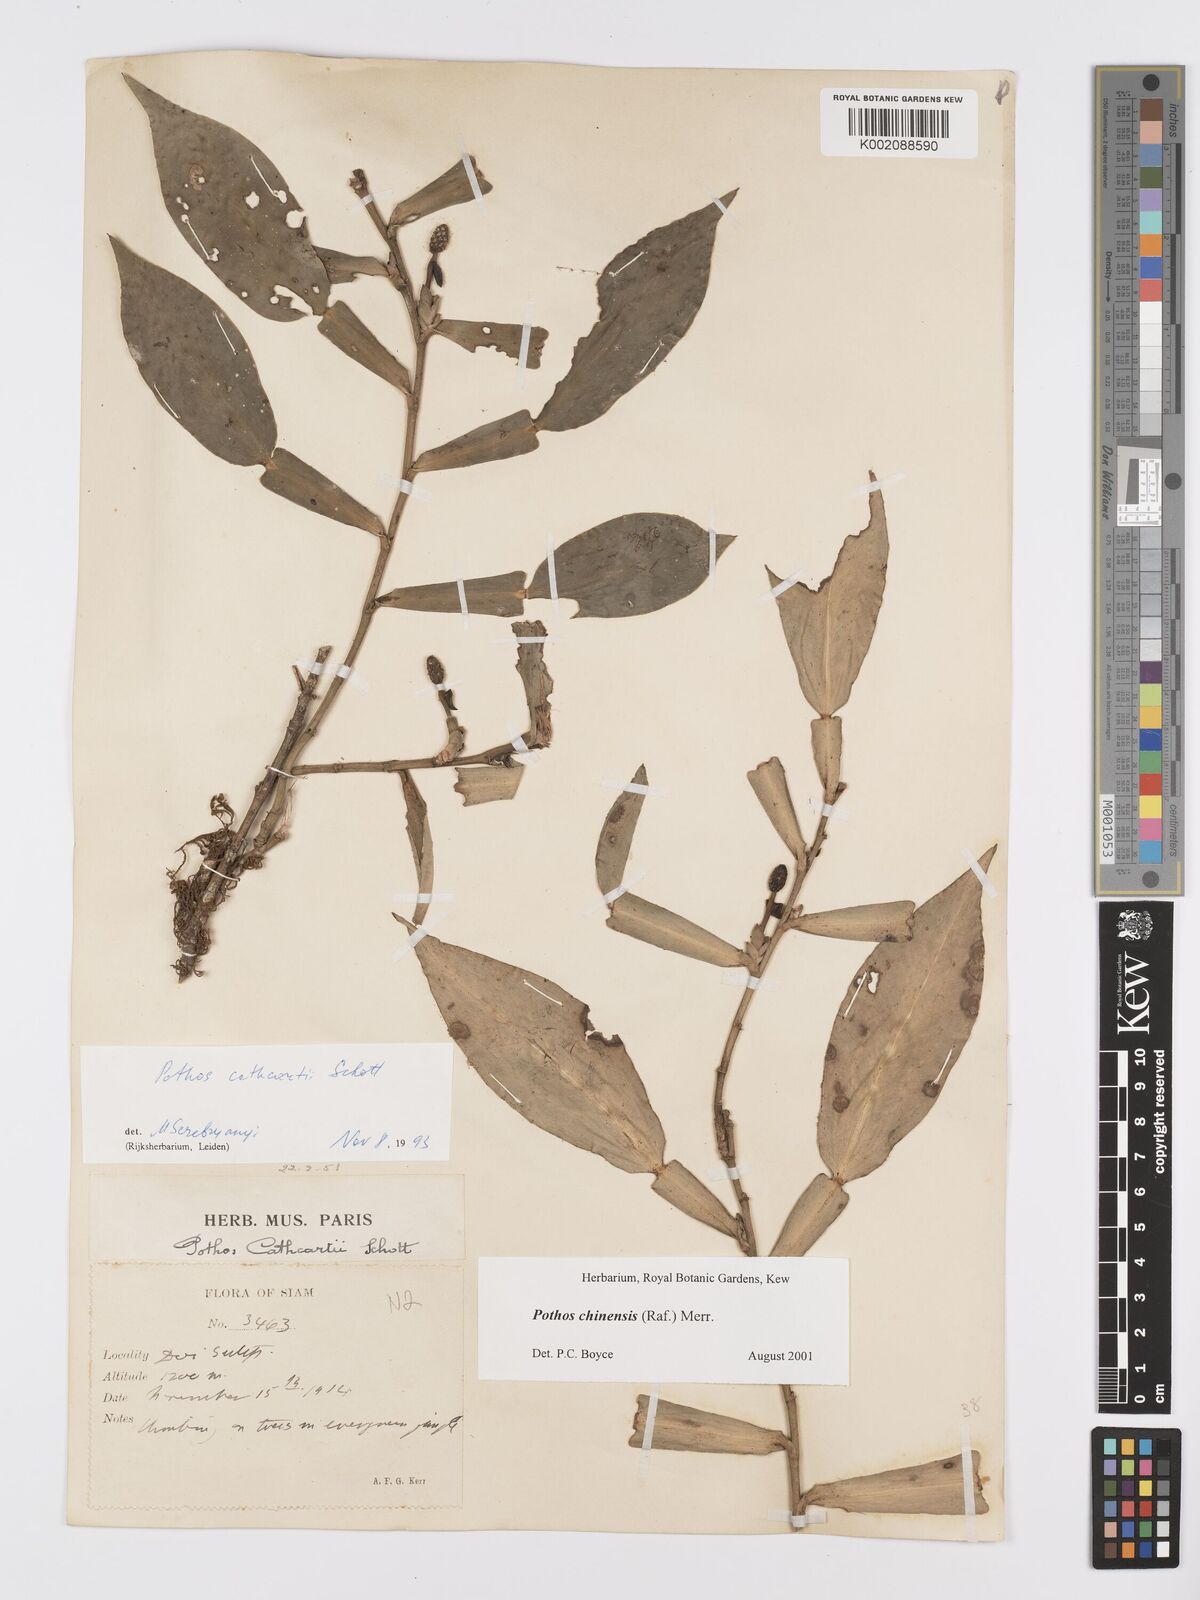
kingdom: Plantae
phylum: Tracheophyta
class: Liliopsida
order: Alismatales
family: Araceae
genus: Pothos
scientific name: Pothos chinensis
